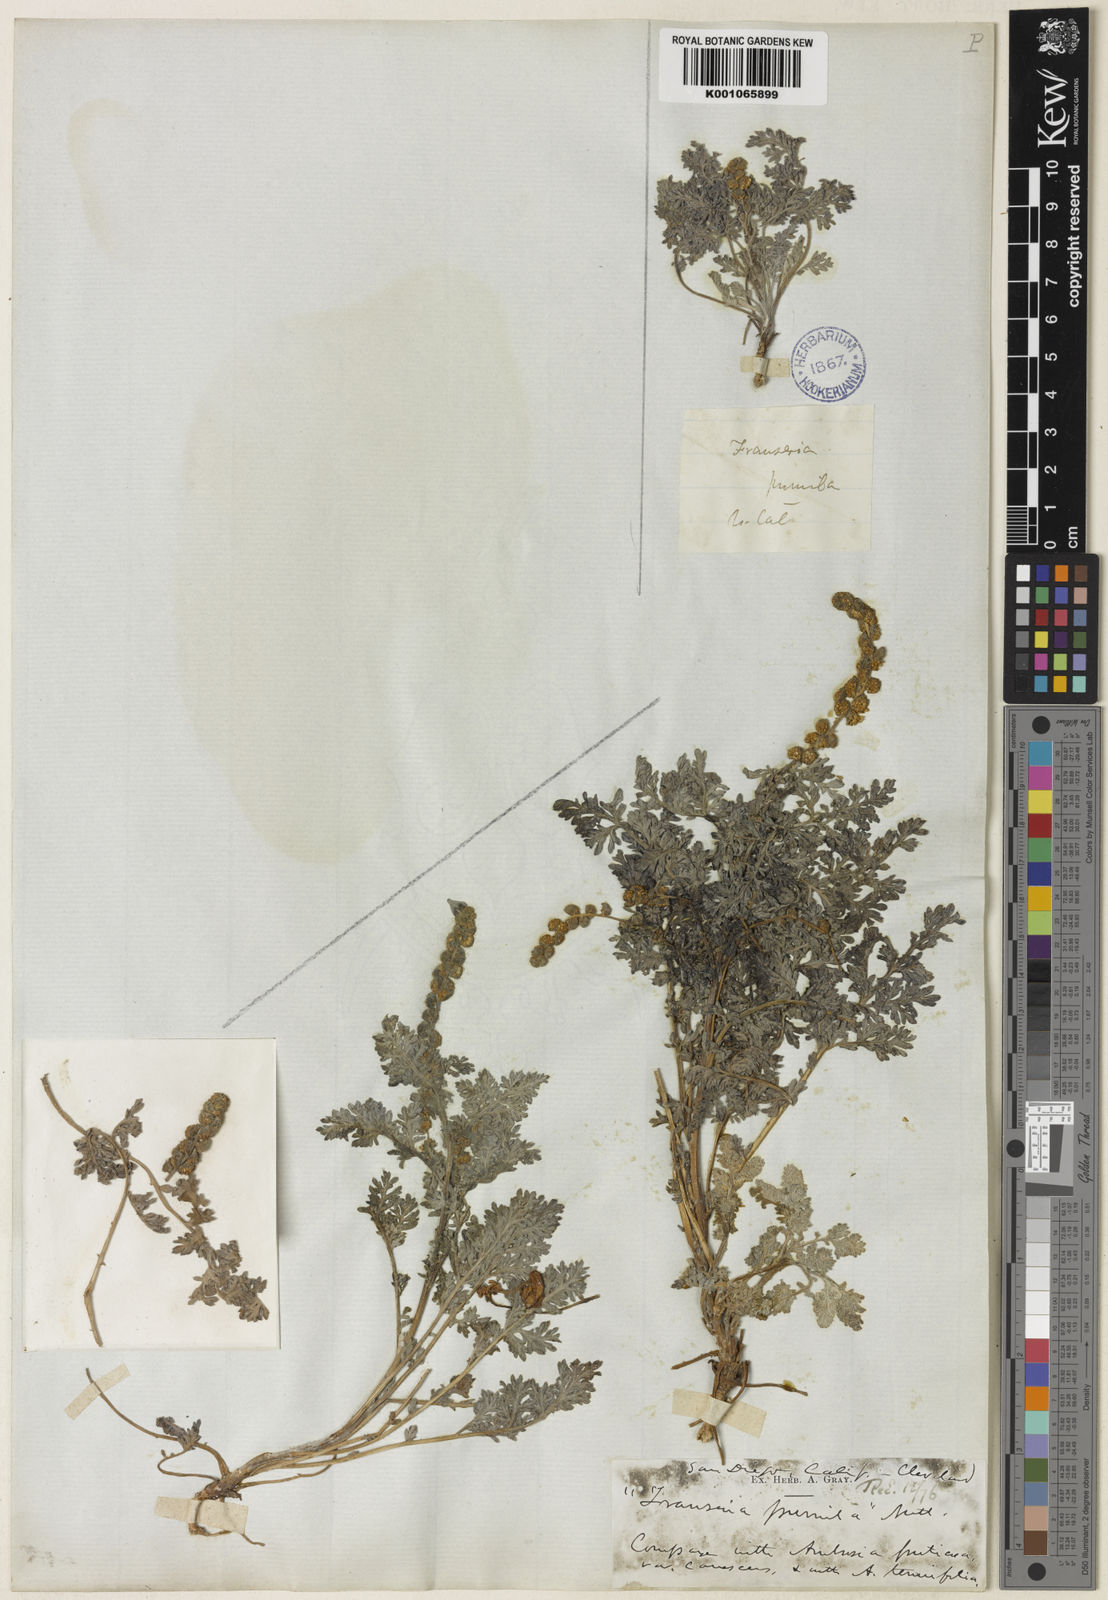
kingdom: Plantae
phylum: Tracheophyta
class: Magnoliopsida
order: Asterales
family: Asteraceae
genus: Ambrosia
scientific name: Ambrosia pumila
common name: San diego ambrosia
